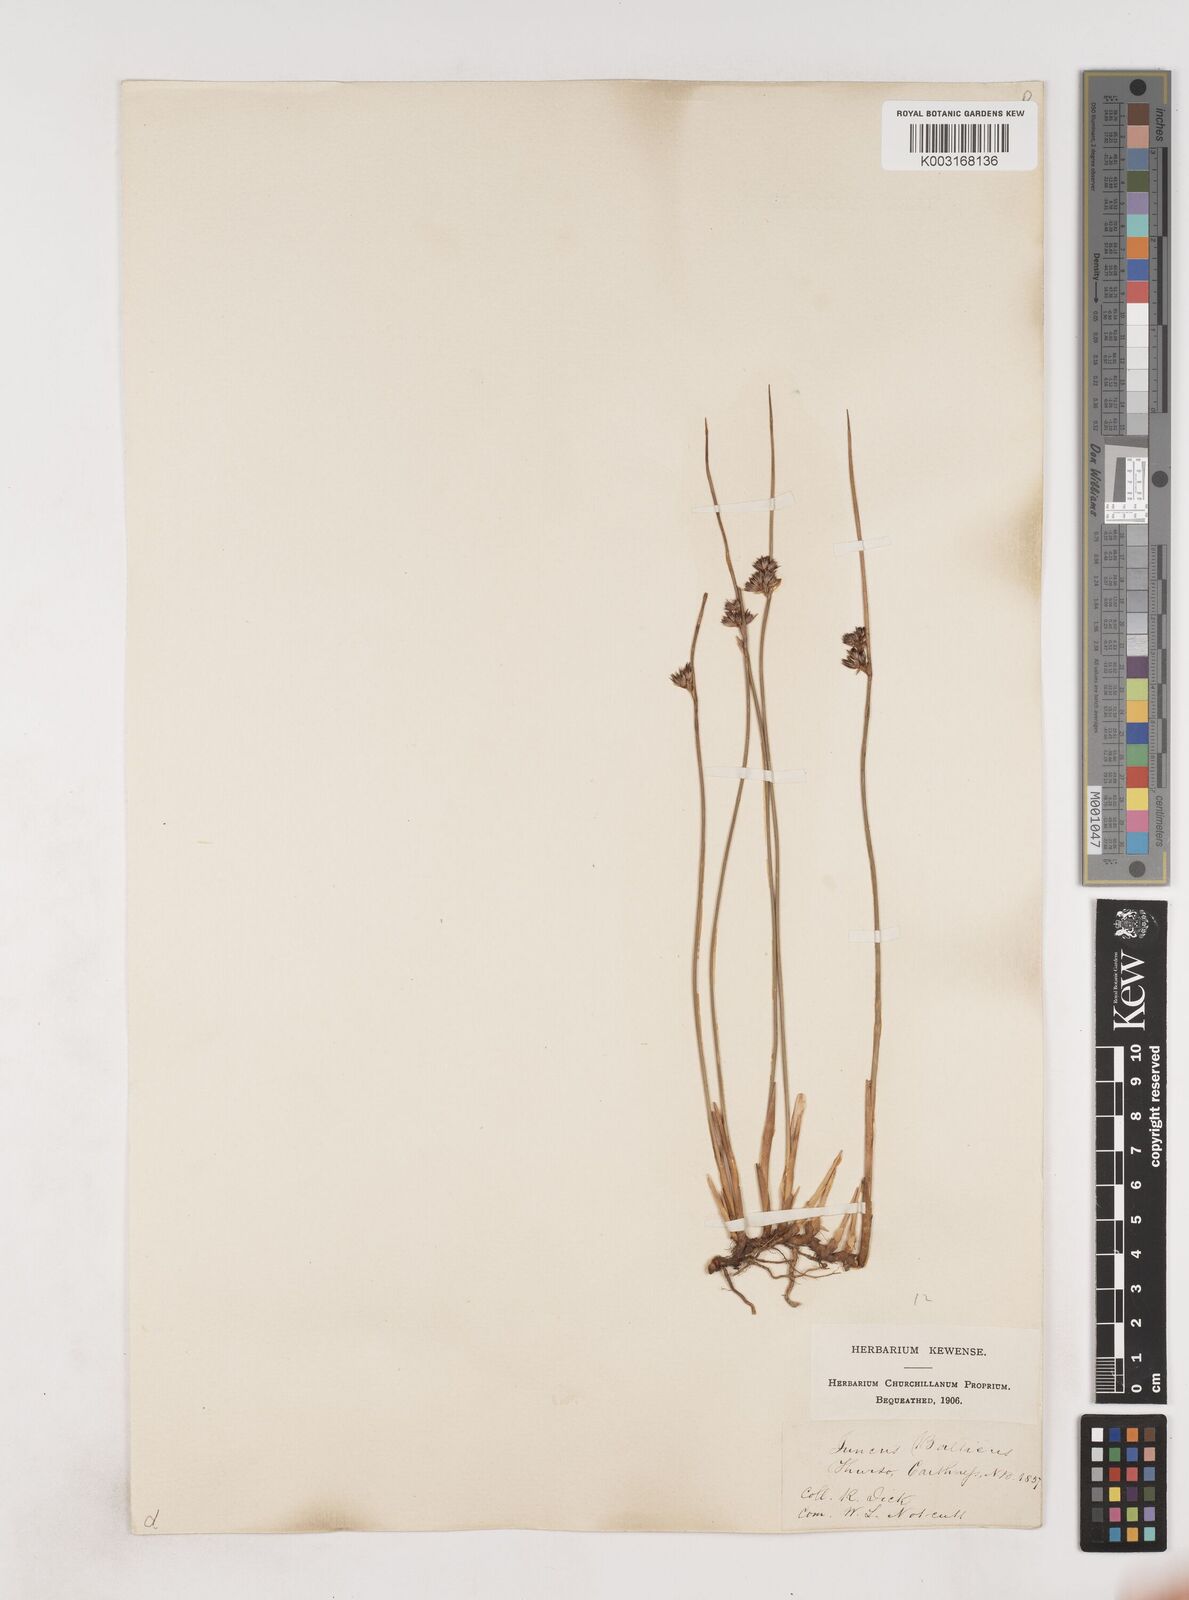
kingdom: Plantae
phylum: Tracheophyta
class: Liliopsida
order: Poales
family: Juncaceae
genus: Juncus
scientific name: Juncus balticus
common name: Baltic rush
